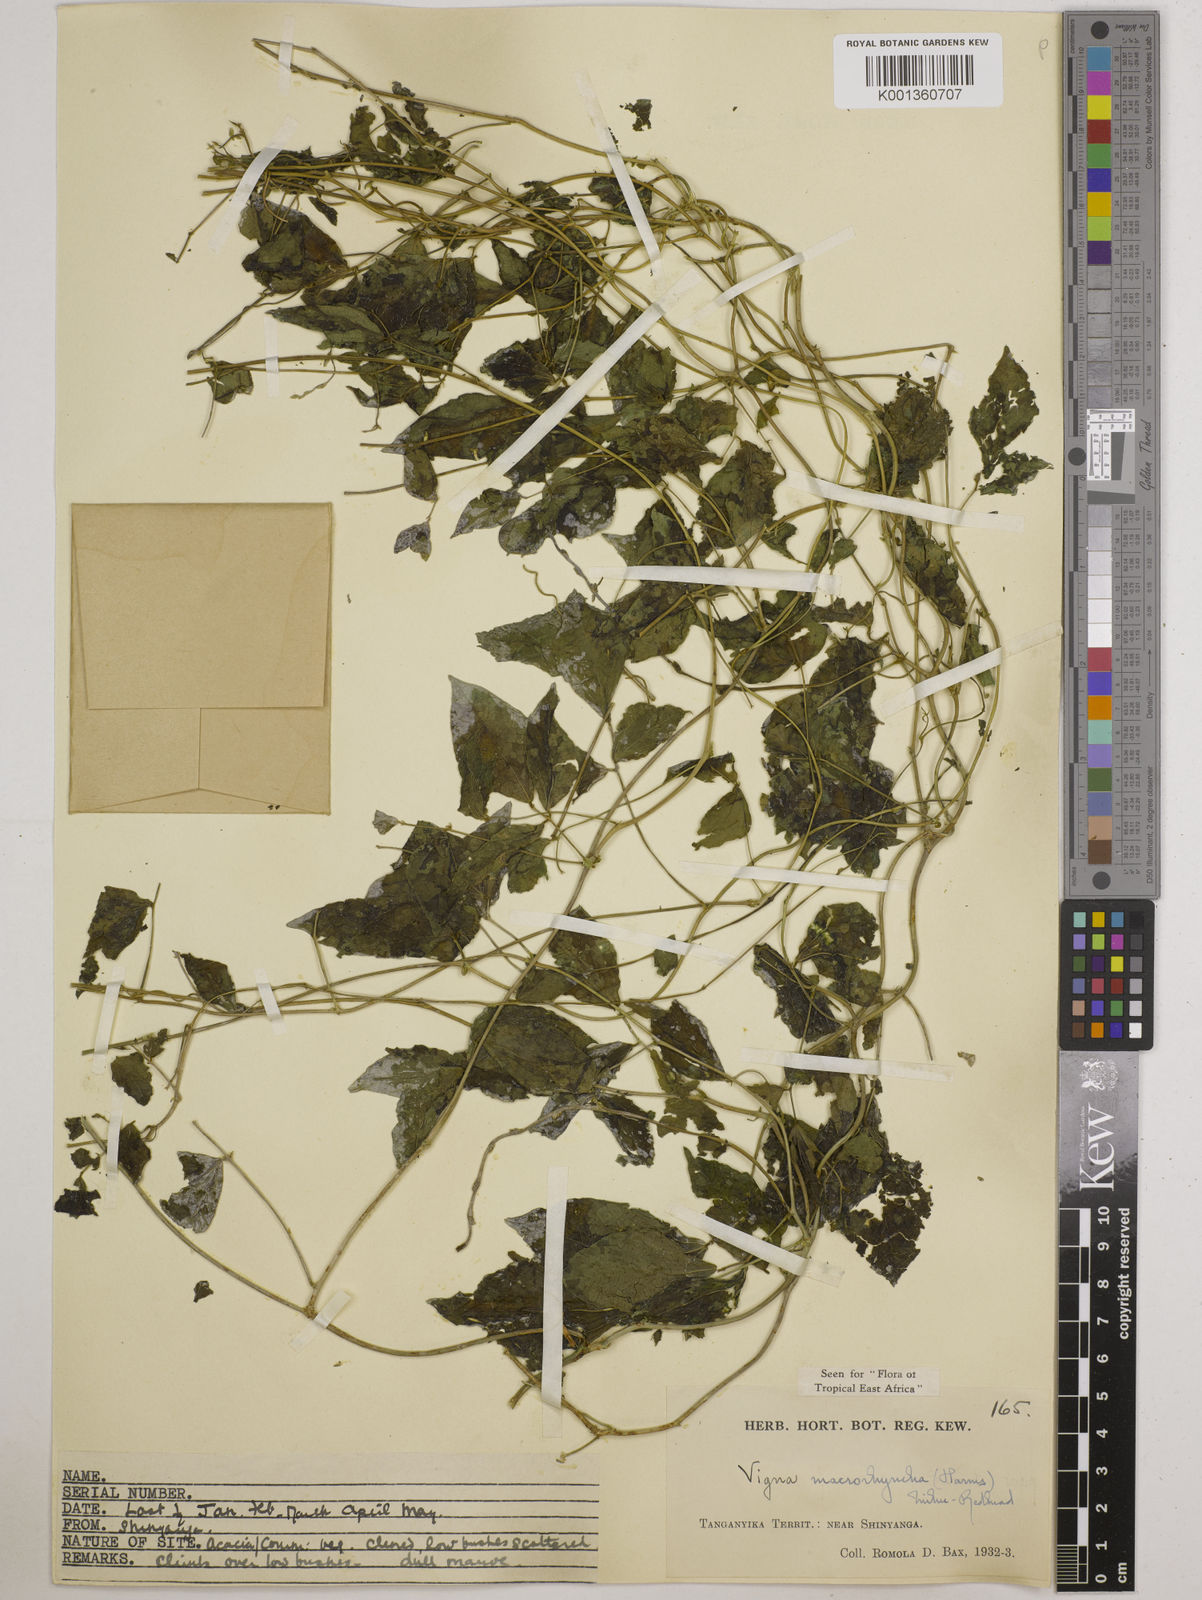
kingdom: Plantae
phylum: Tracheophyta
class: Magnoliopsida
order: Fabales
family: Fabaceae
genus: Wajira
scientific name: Wajira grahamiana
